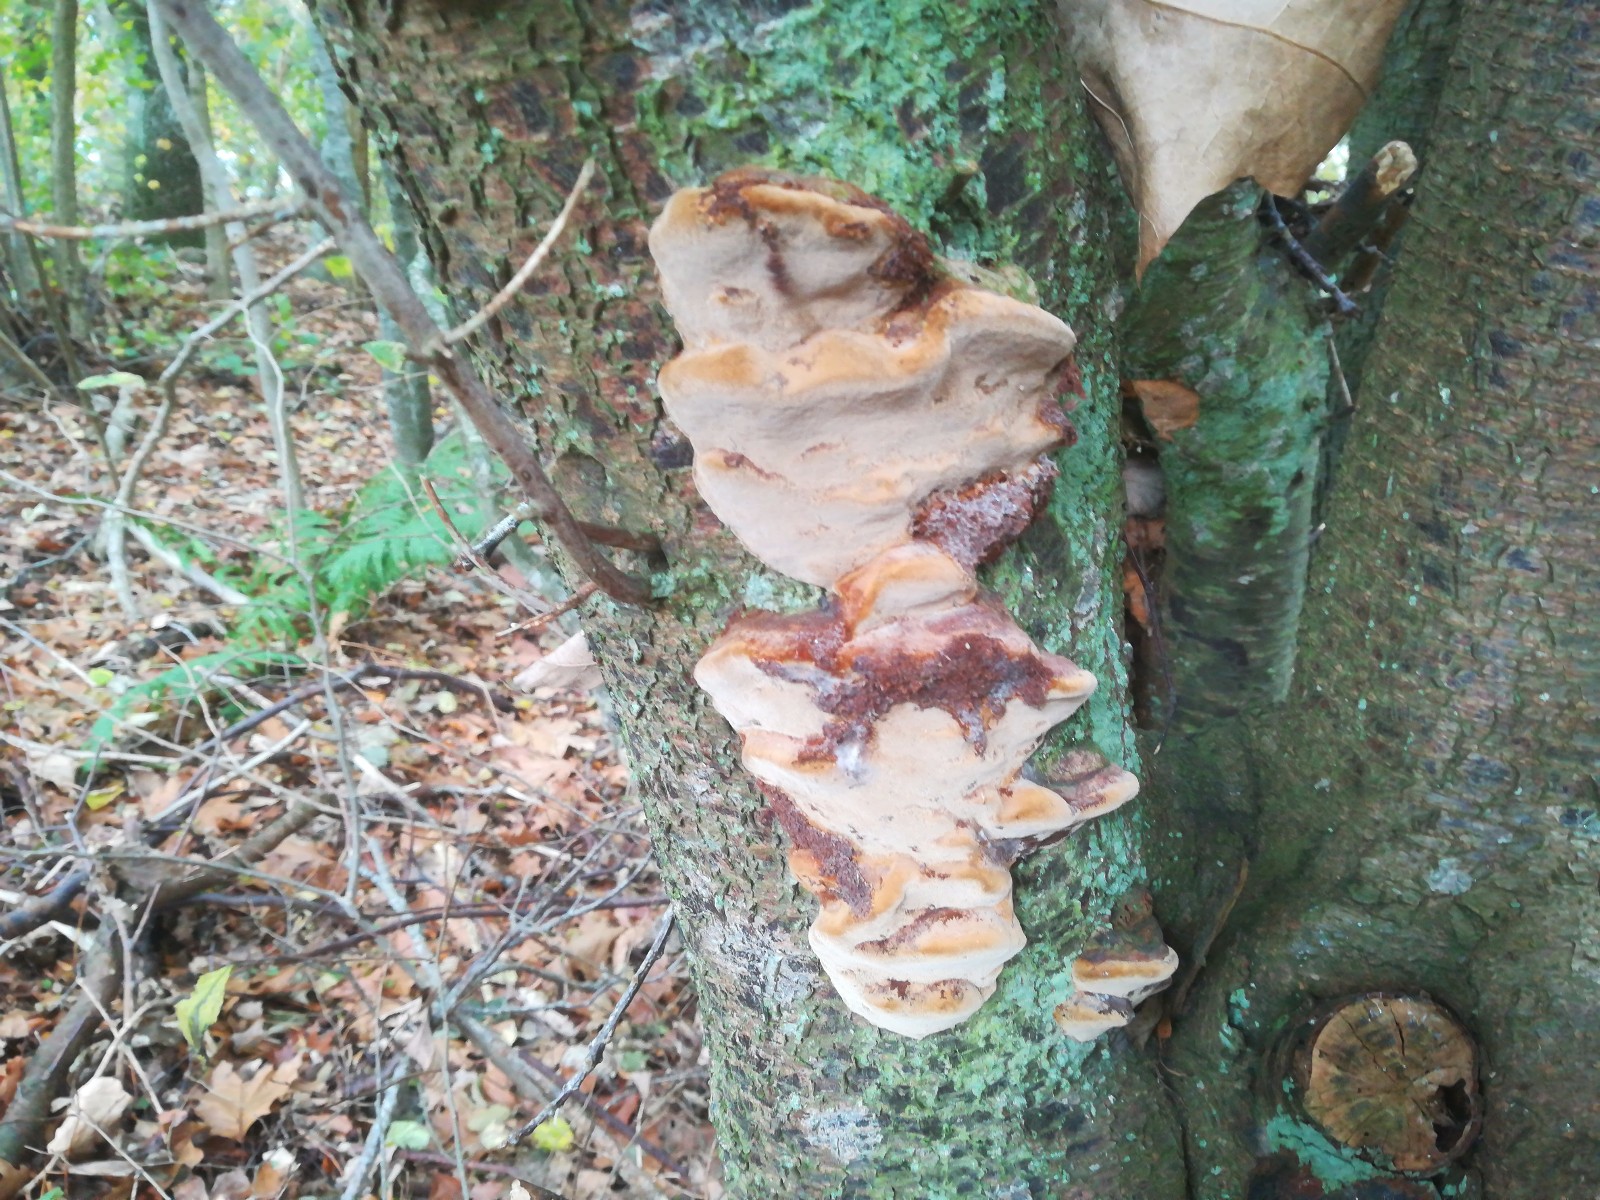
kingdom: Fungi
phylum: Basidiomycota
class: Agaricomycetes
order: Hymenochaetales
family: Hymenochaetaceae
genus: Phellinus
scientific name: Phellinus pomaceus
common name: blomme-ildporesvamp
